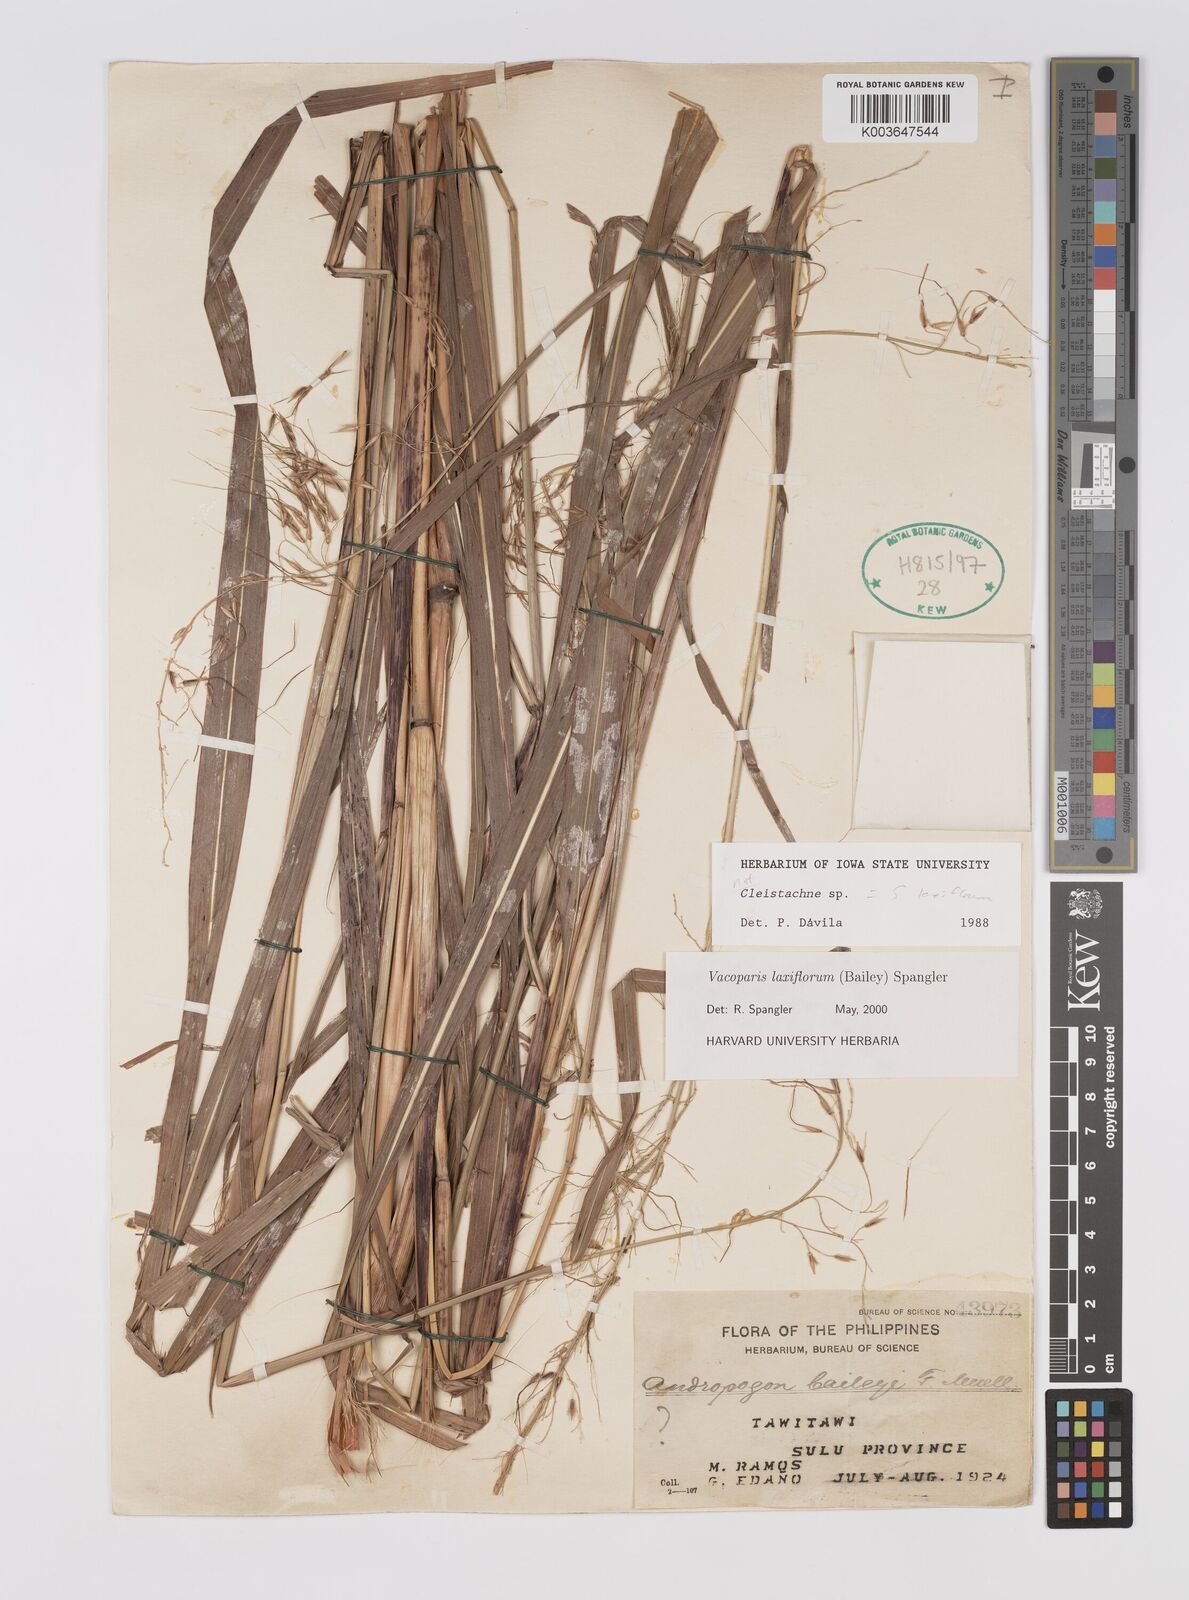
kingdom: Plantae
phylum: Tracheophyta
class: Liliopsida
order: Poales
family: Poaceae
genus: Sorghum
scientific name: Sorghum laxiflorum
